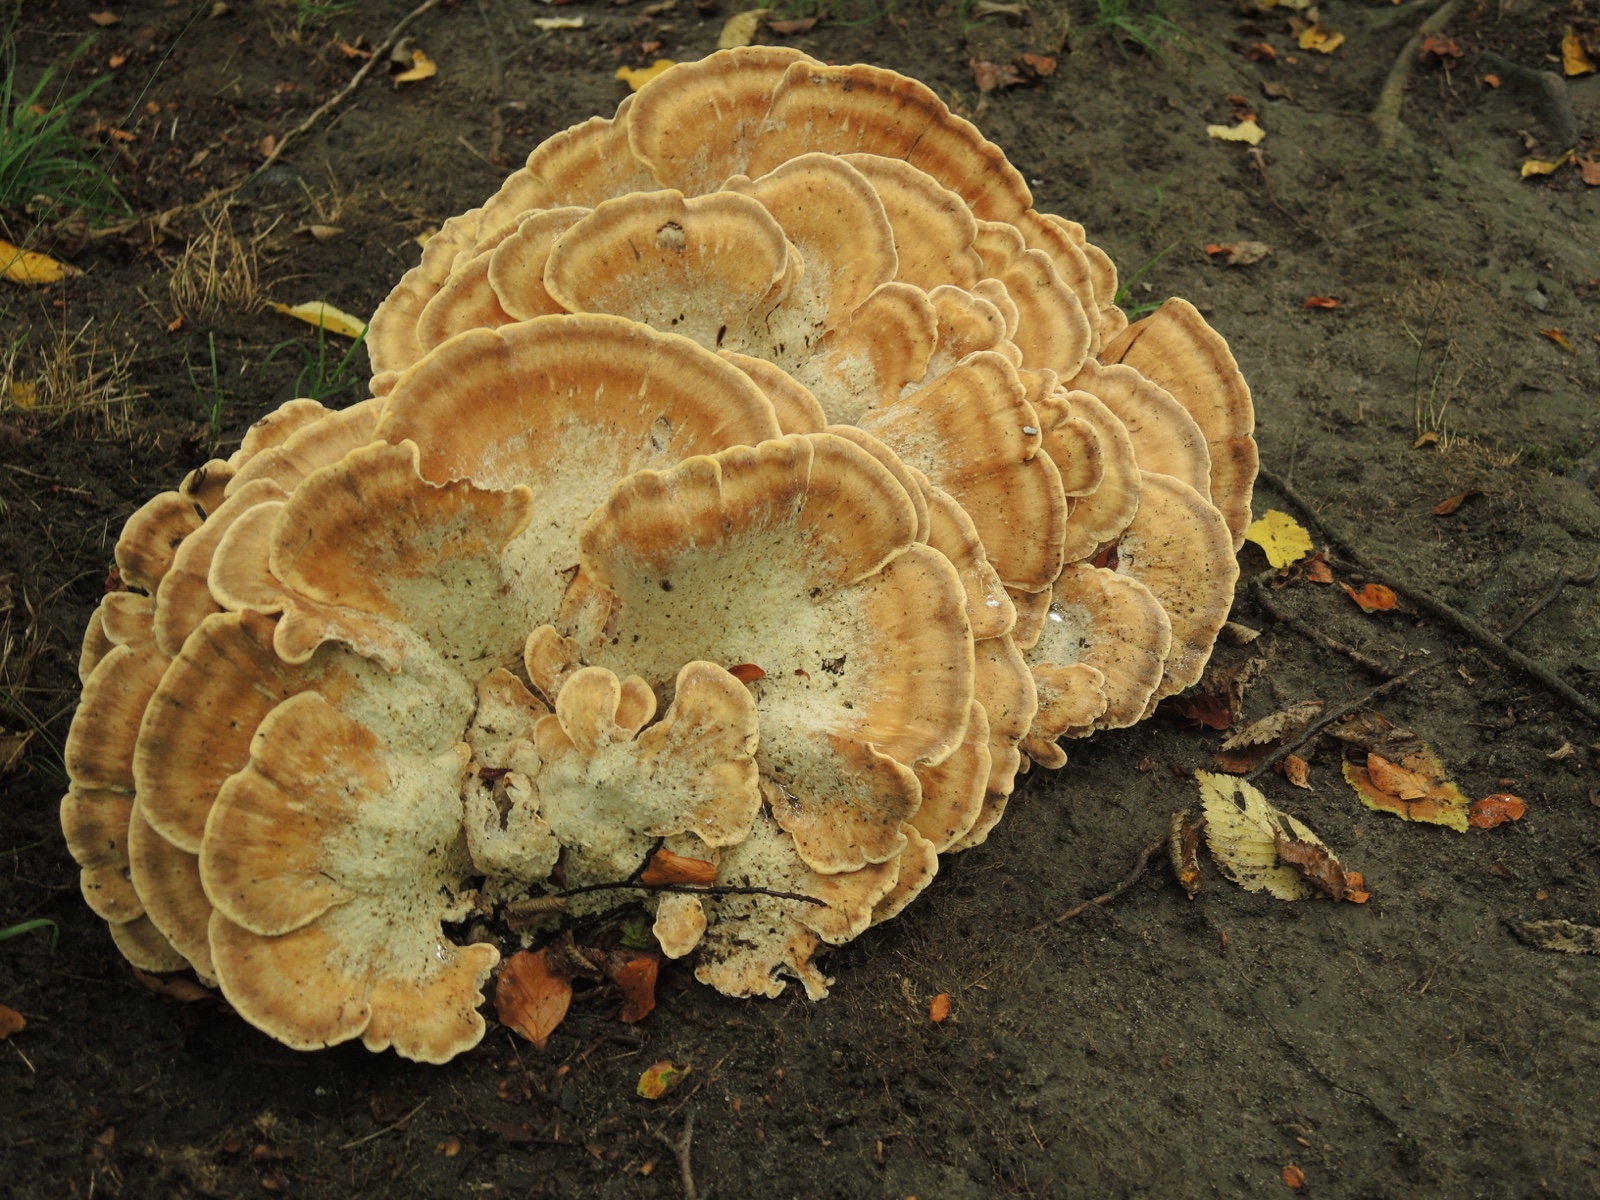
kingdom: Fungi
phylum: Basidiomycota
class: Agaricomycetes
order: Polyporales
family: Meripilaceae
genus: Meripilus
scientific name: Meripilus giganteus
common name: kæmpeporesvamp
